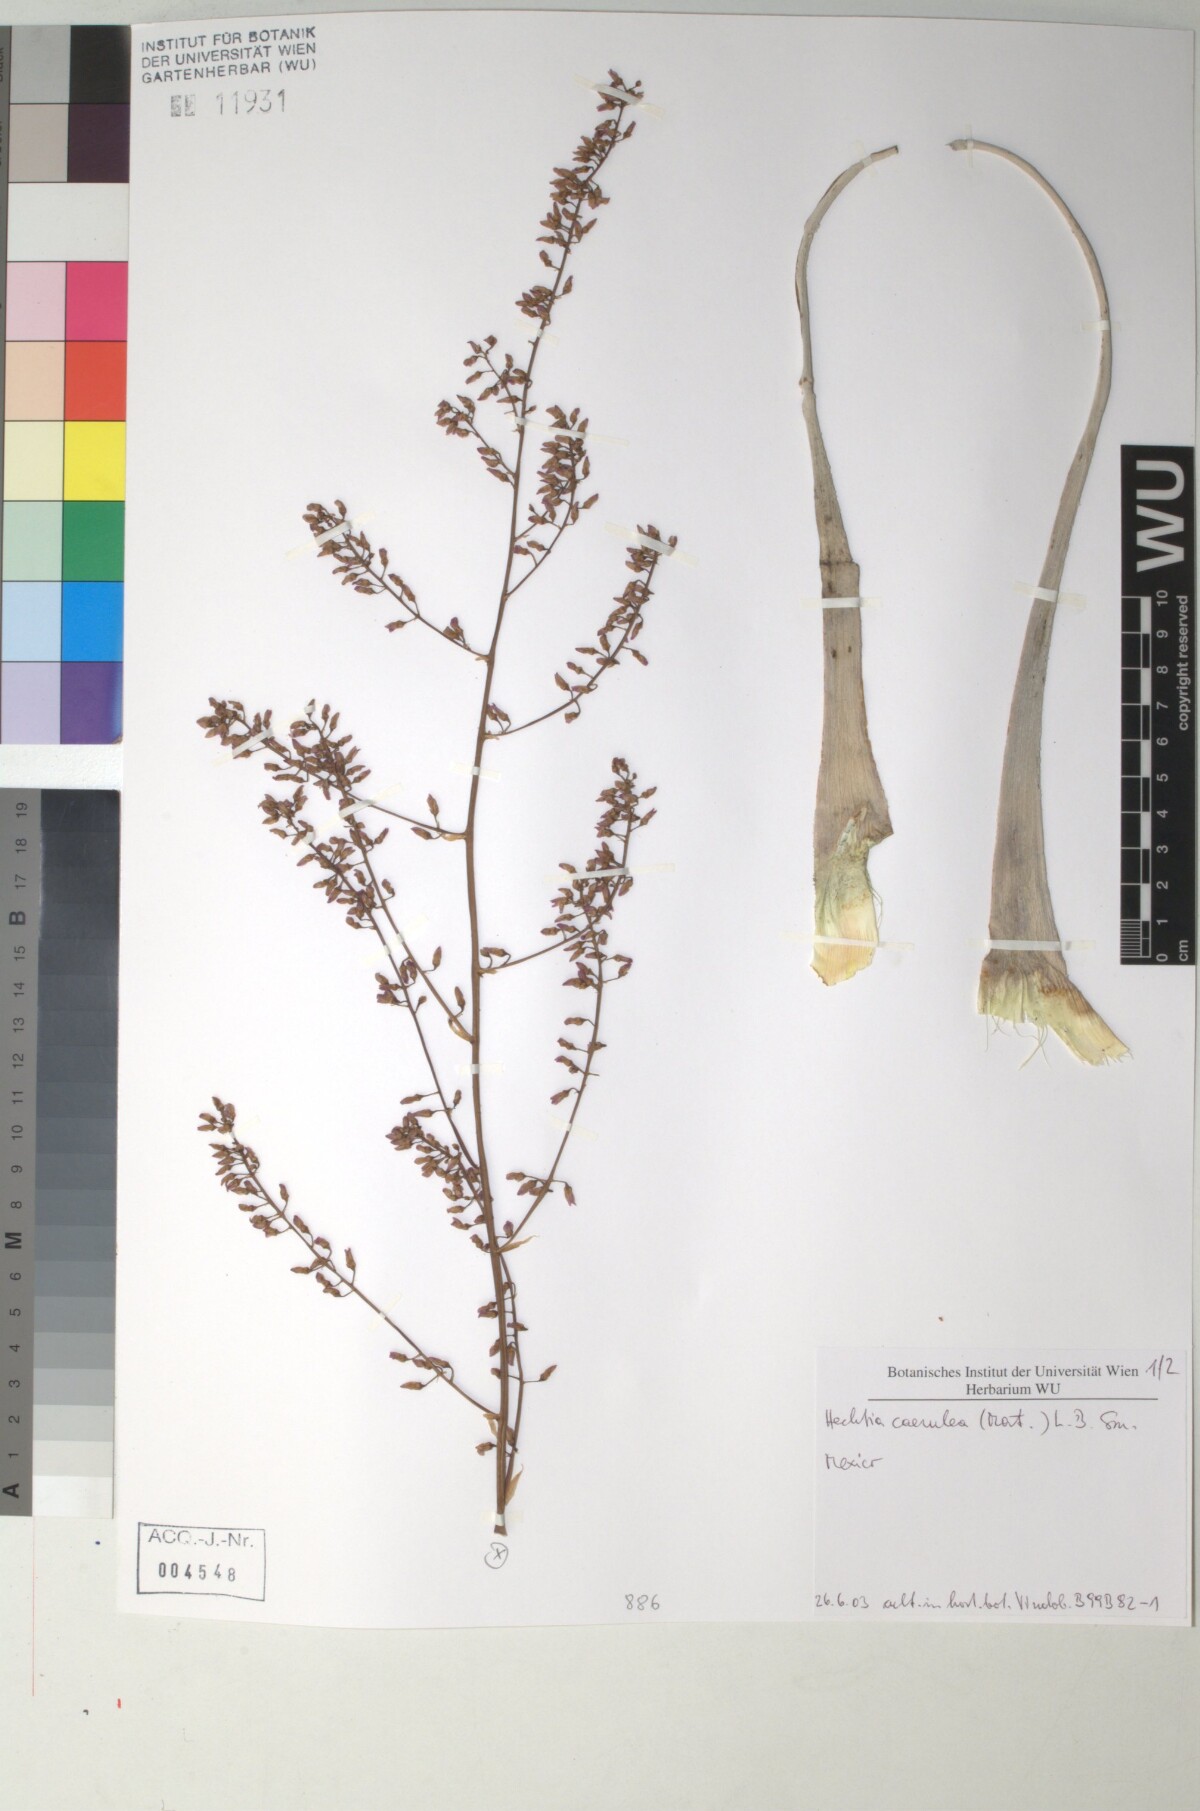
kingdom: Plantae
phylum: Tracheophyta
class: Liliopsida
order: Poales
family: Bromeliaceae
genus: Hechtia
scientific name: Hechtia
